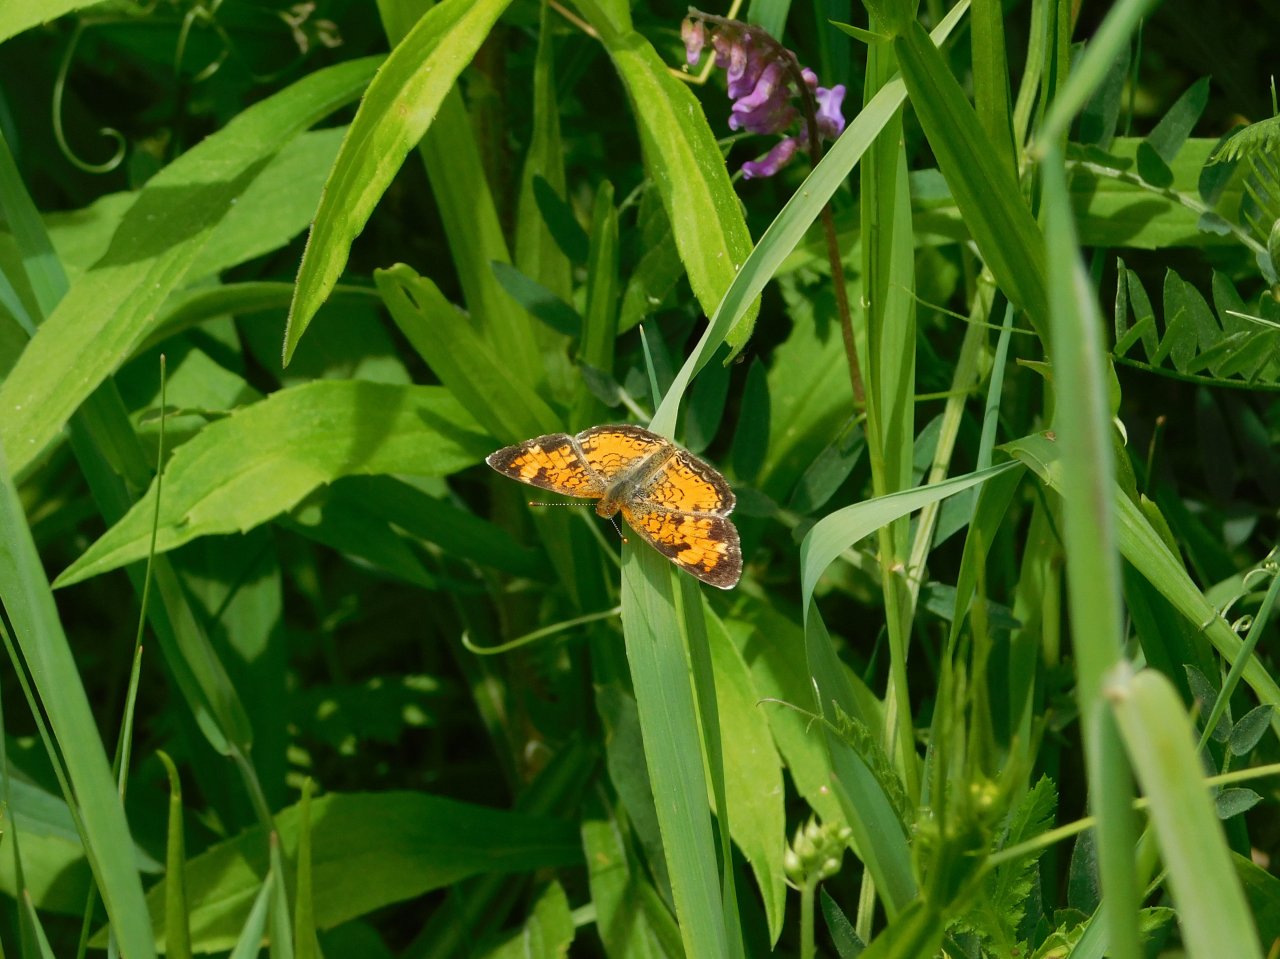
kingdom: Animalia
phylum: Arthropoda
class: Insecta
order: Lepidoptera
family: Nymphalidae
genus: Phyciodes
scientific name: Phyciodes tharos
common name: Northern Crescent
